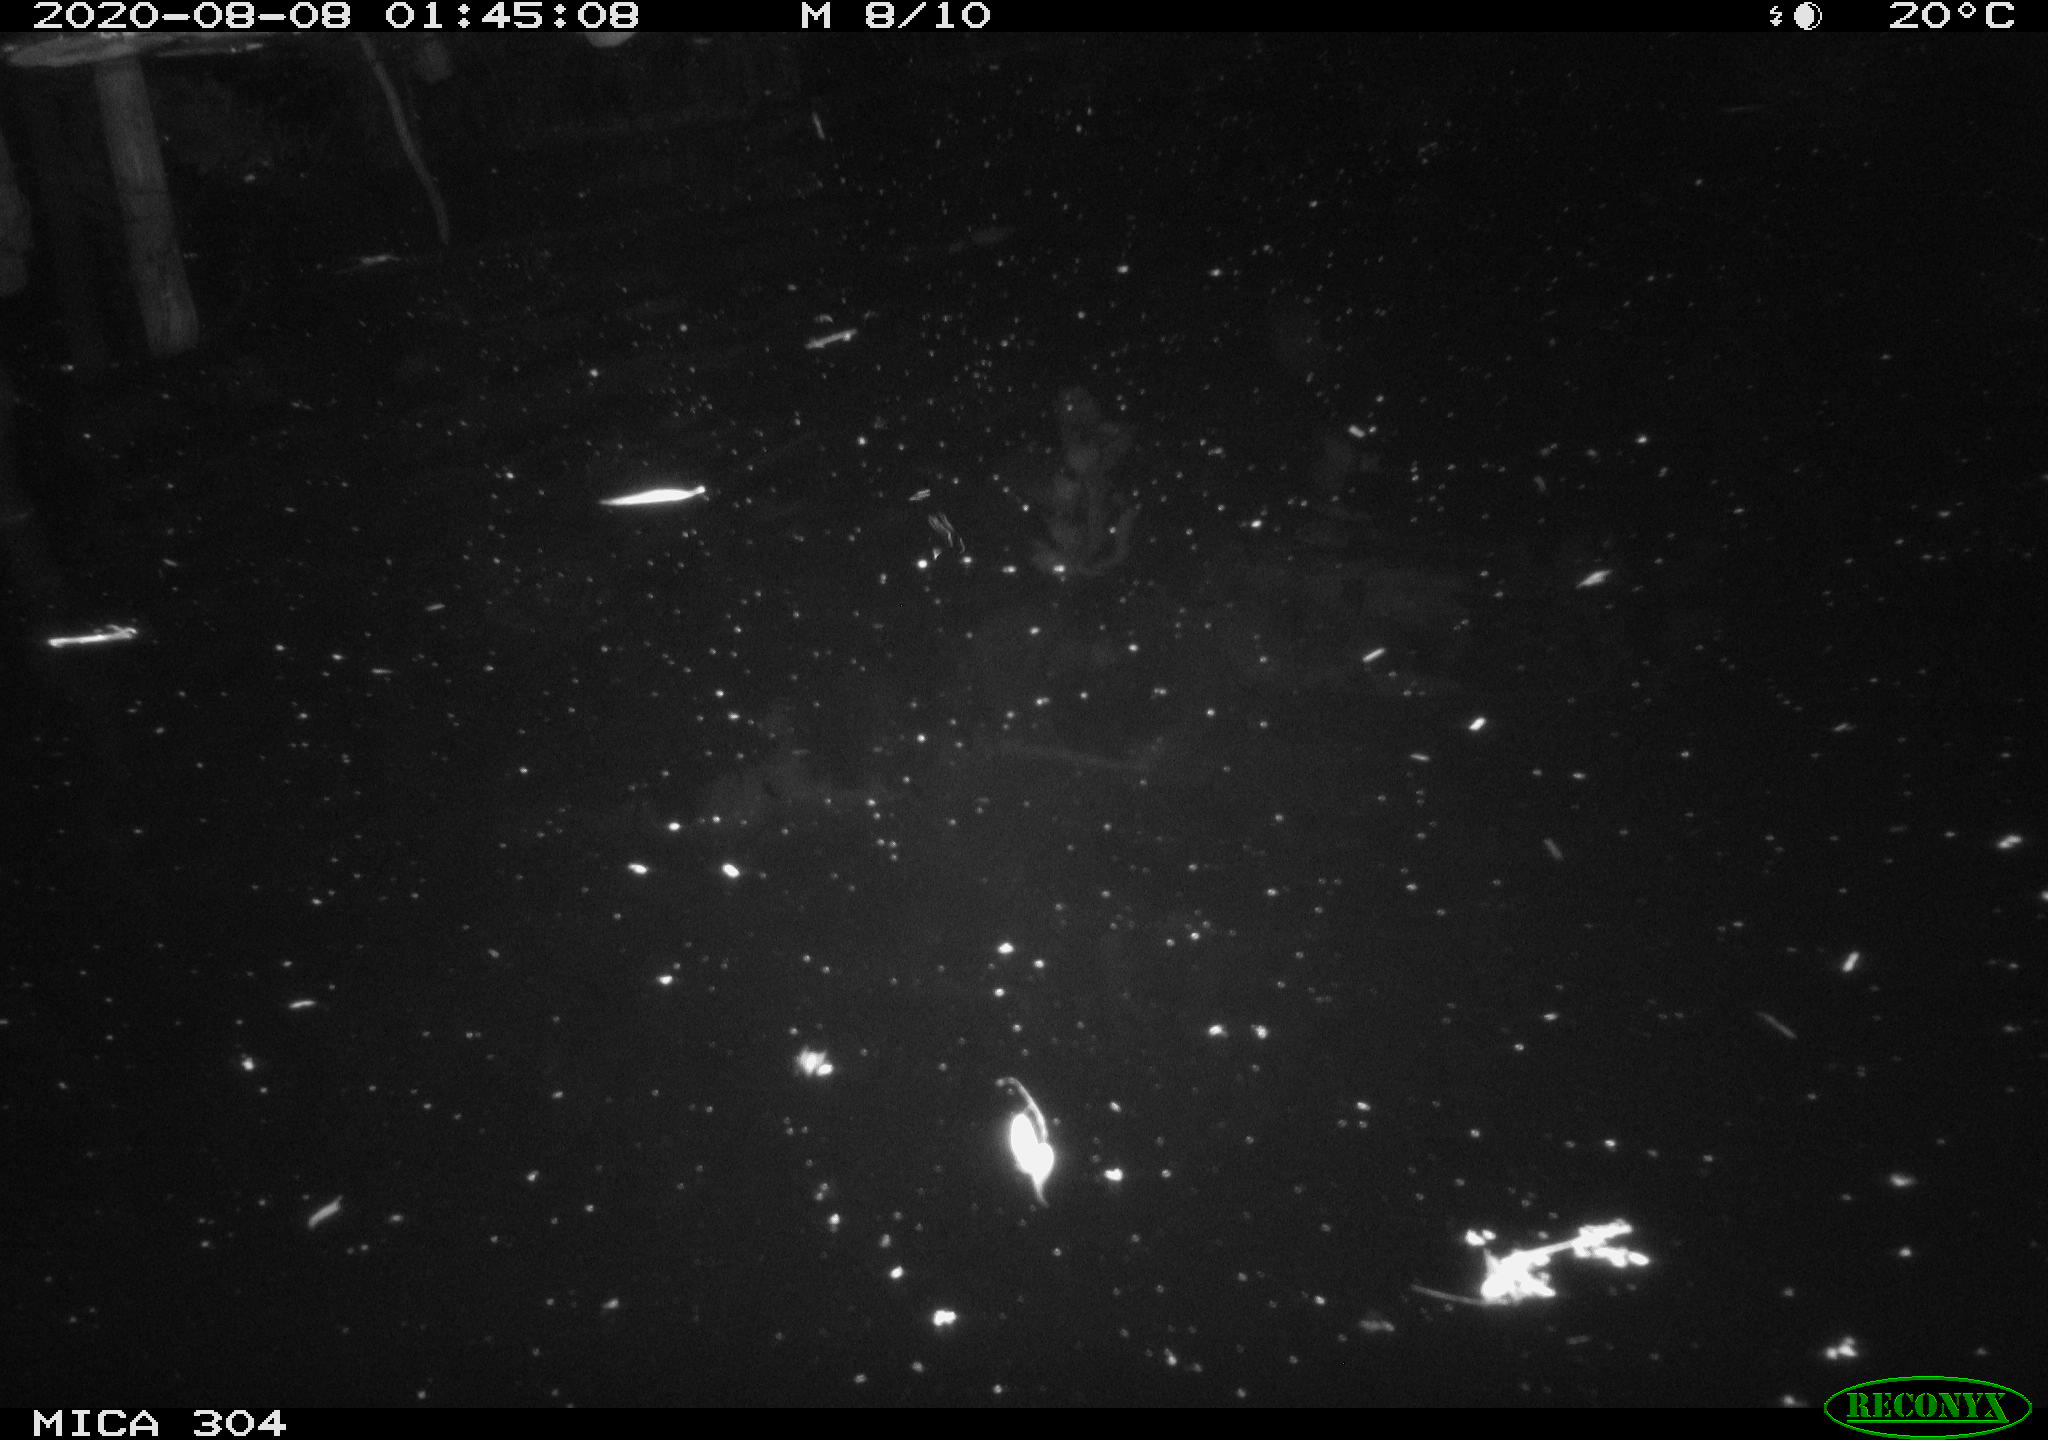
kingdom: Animalia
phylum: Chordata
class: Mammalia
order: Rodentia
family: Cricetidae
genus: Ondatra
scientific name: Ondatra zibethicus
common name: Muskrat
